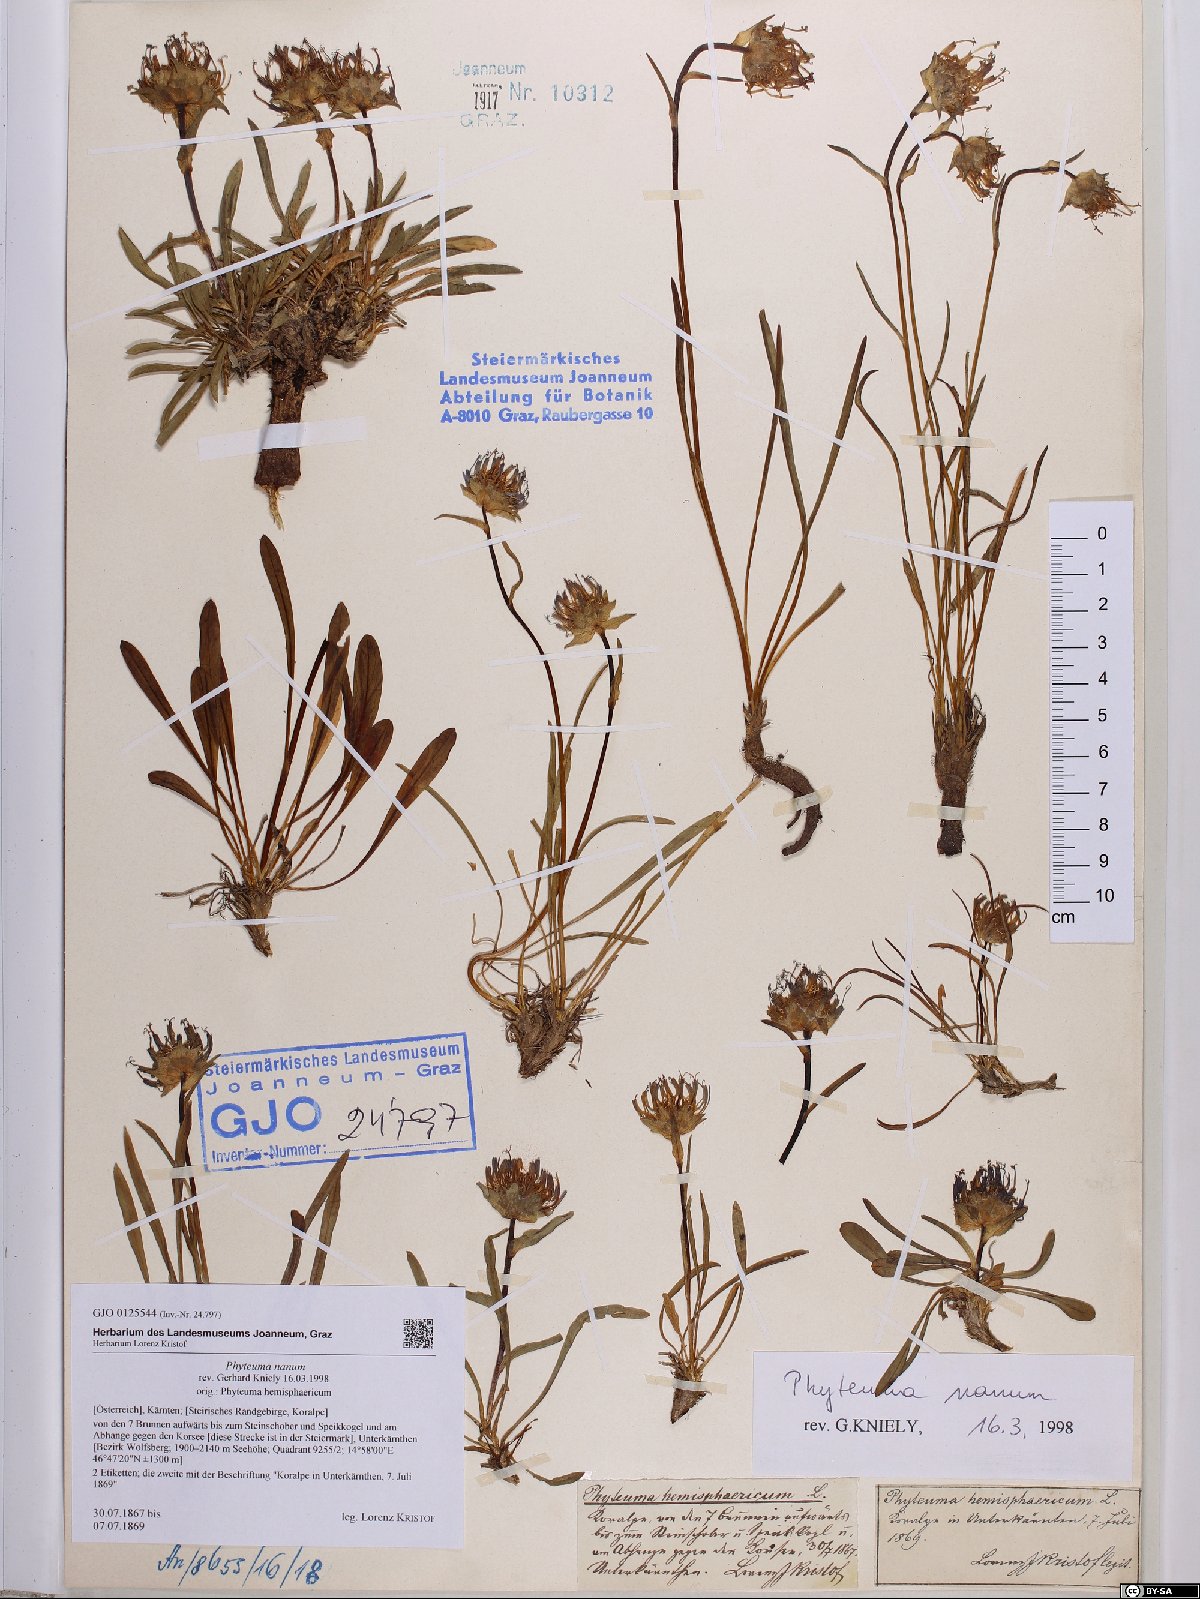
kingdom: Plantae
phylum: Tracheophyta
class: Magnoliopsida
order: Asterales
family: Campanulaceae
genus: Phyteuma
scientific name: Phyteuma globulariifolium
